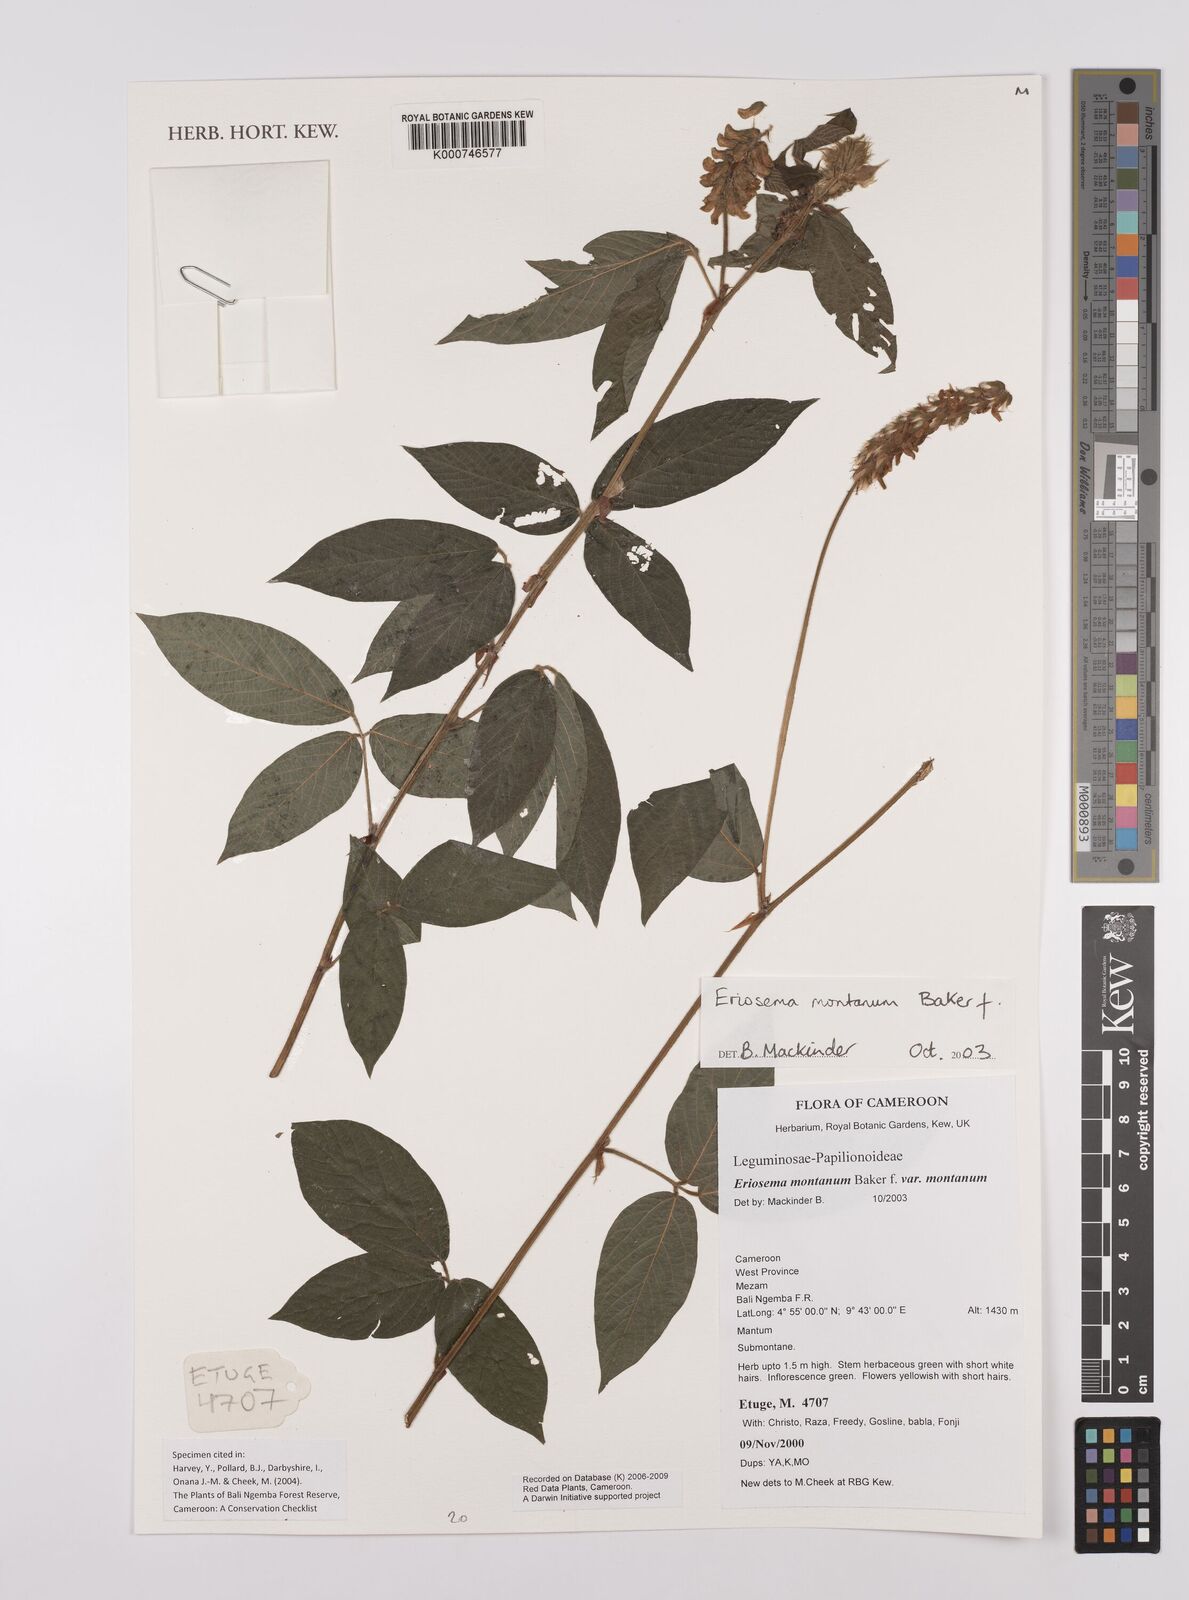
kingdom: Plantae
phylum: Tracheophyta
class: Magnoliopsida
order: Fabales
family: Fabaceae
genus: Eriosema
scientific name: Eriosema montanum
